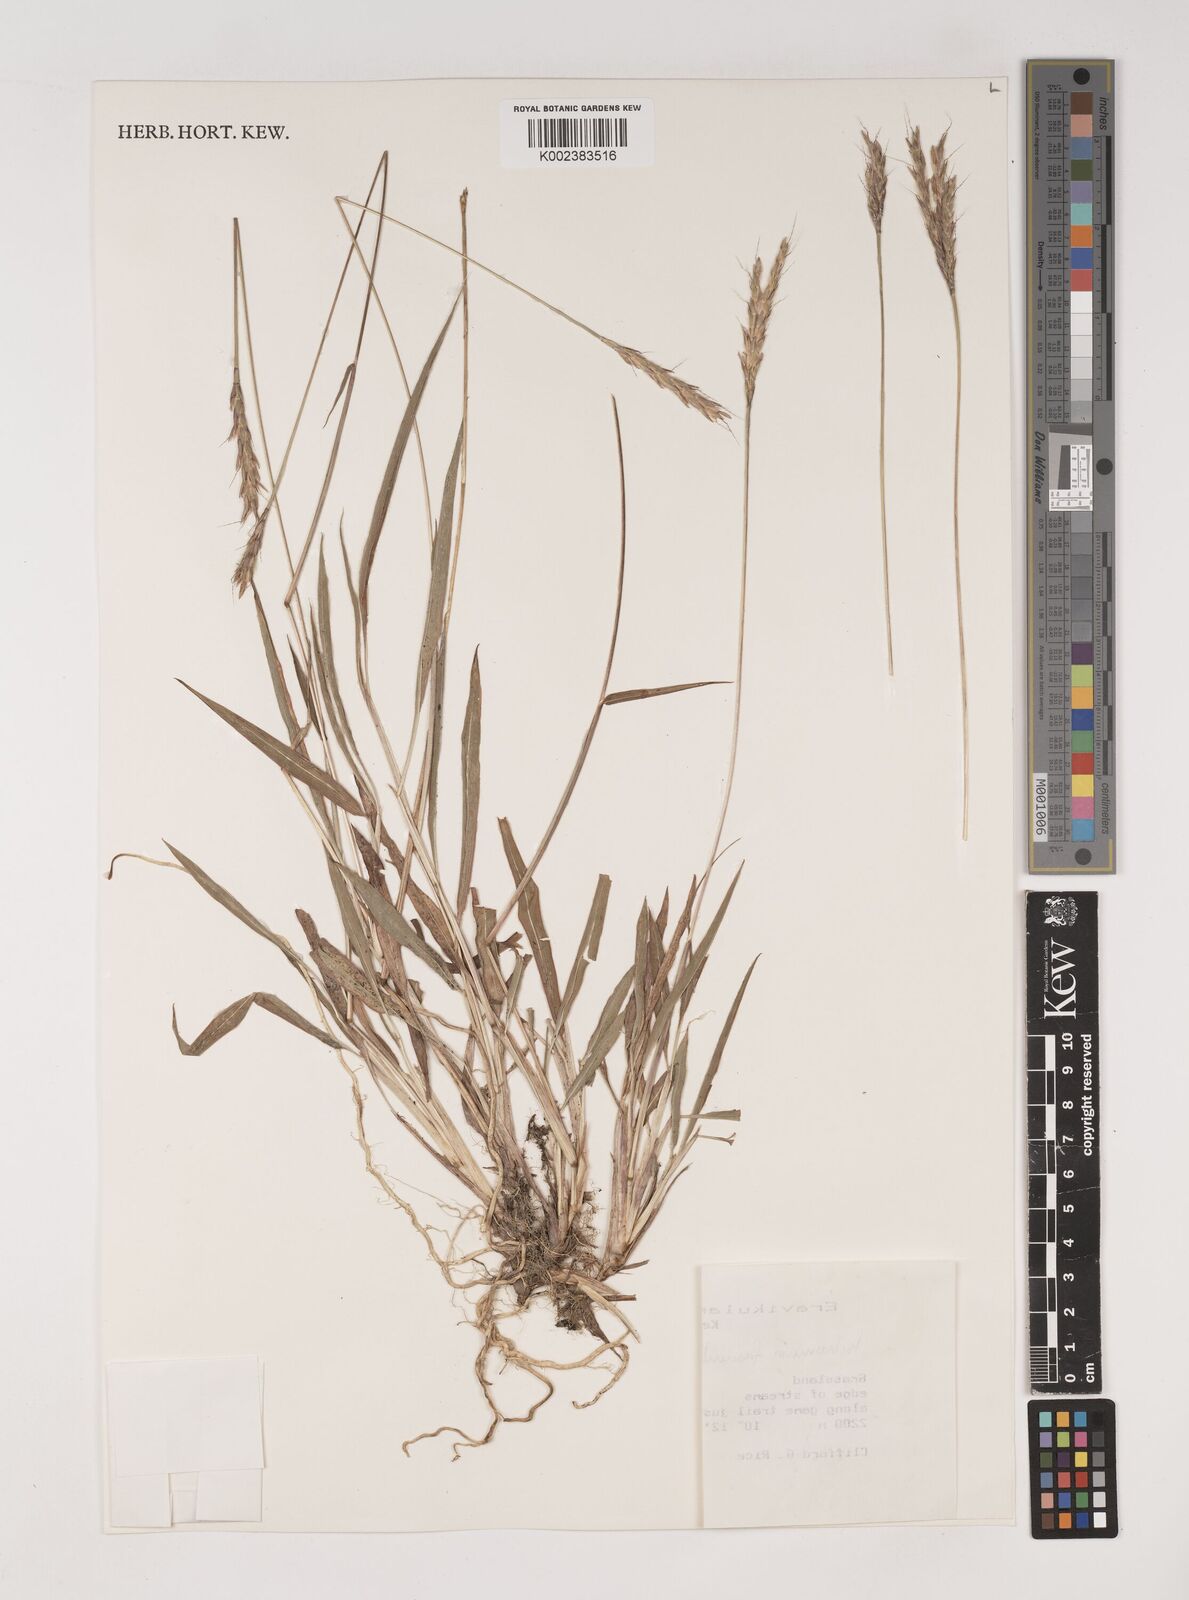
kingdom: Plantae
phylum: Tracheophyta
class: Liliopsida
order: Poales
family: Poaceae
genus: Ischaemum
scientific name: Ischaemum
